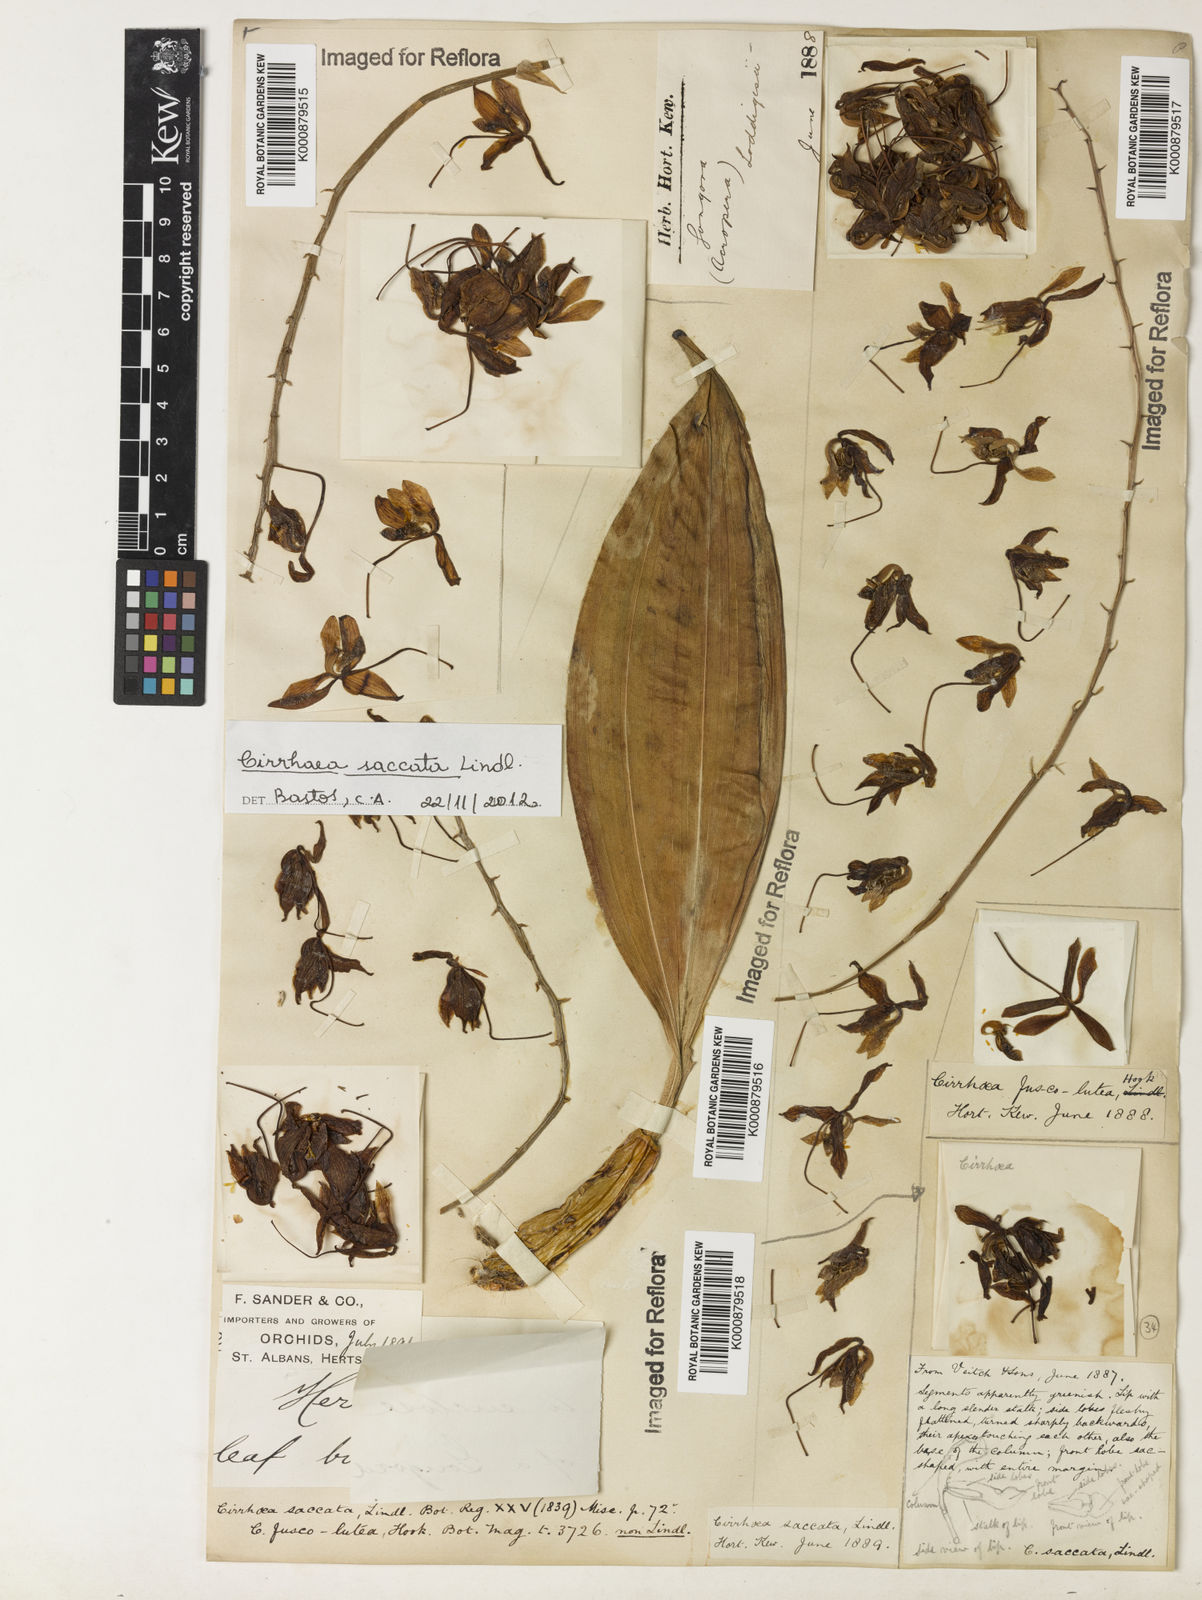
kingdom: Plantae
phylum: Tracheophyta
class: Liliopsida
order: Asparagales
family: Orchidaceae
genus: Cirrhaea
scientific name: Cirrhaea fuscolutea
